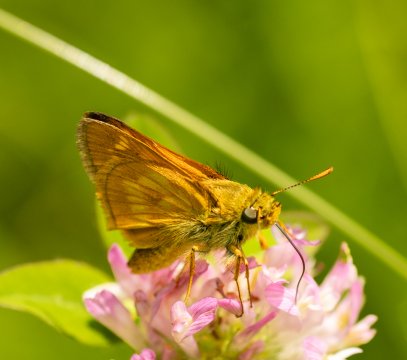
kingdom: Animalia
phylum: Arthropoda
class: Insecta
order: Lepidoptera
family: Hesperiidae
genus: Polites
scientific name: Polites
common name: Long Dash Skipper
